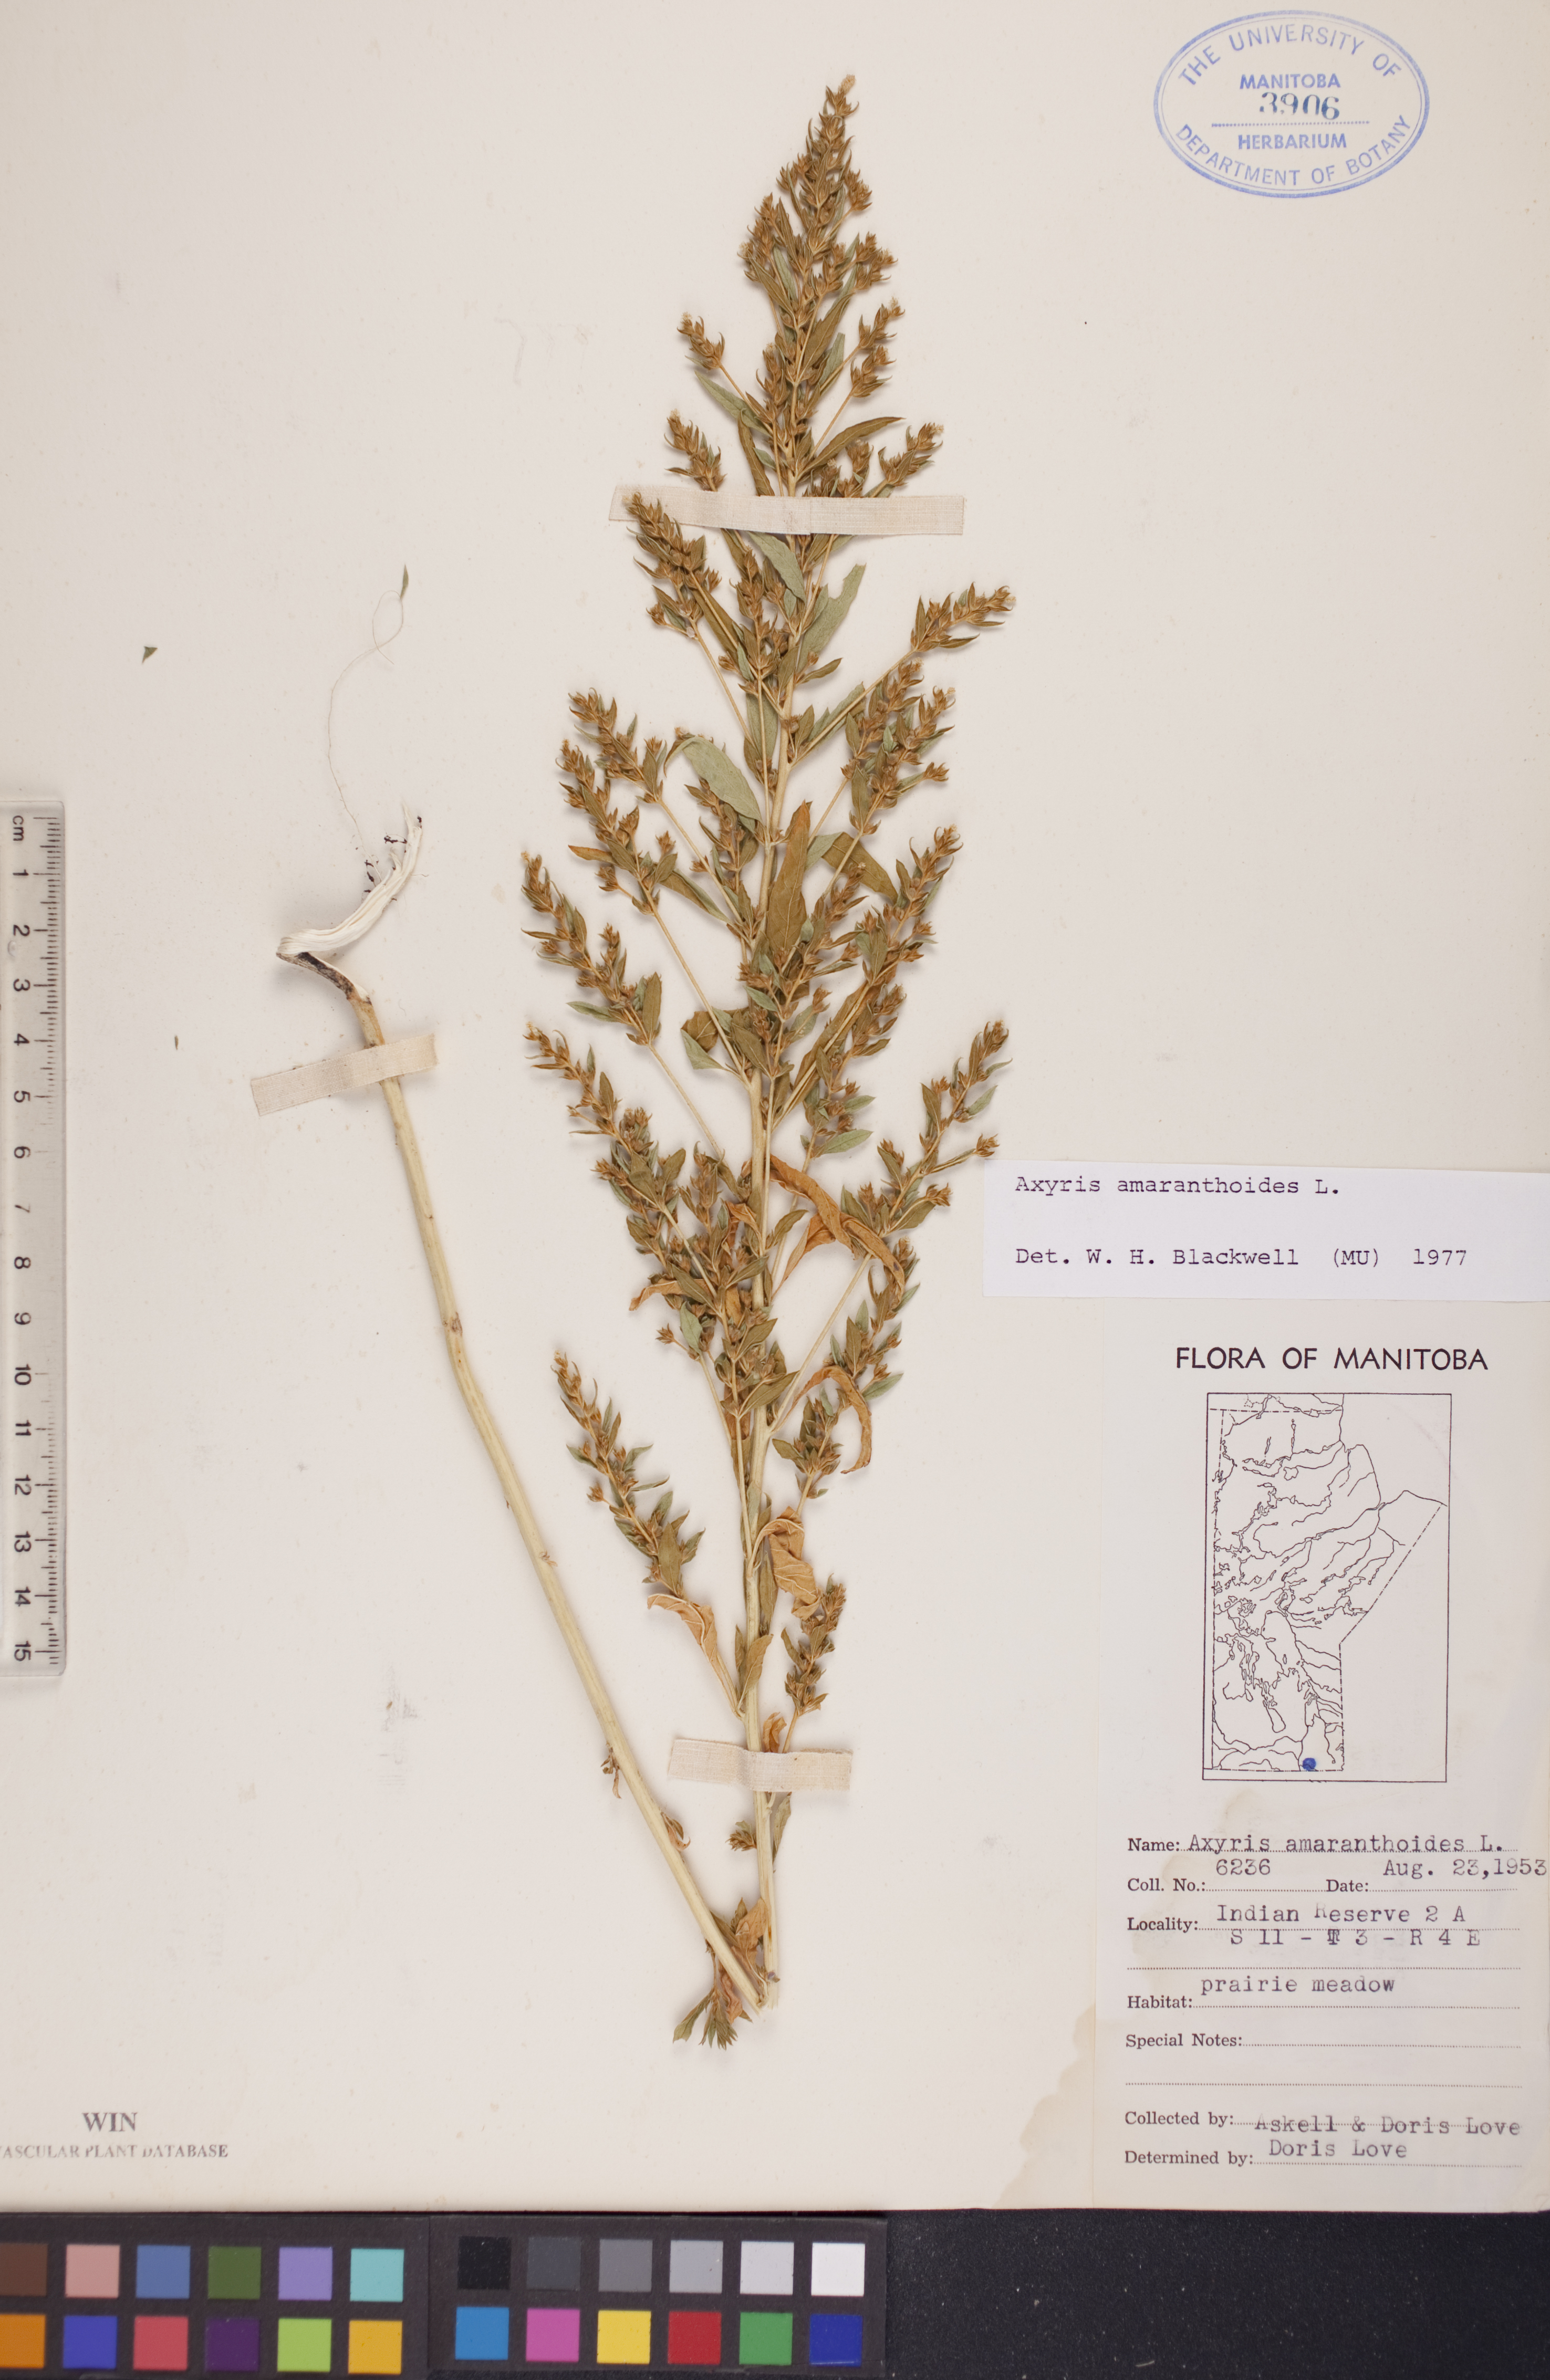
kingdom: Plantae
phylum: Tracheophyta
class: Magnoliopsida
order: Caryophyllales
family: Amaranthaceae
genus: Axyris
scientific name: Axyris amaranthoides
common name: Russian pigweed
